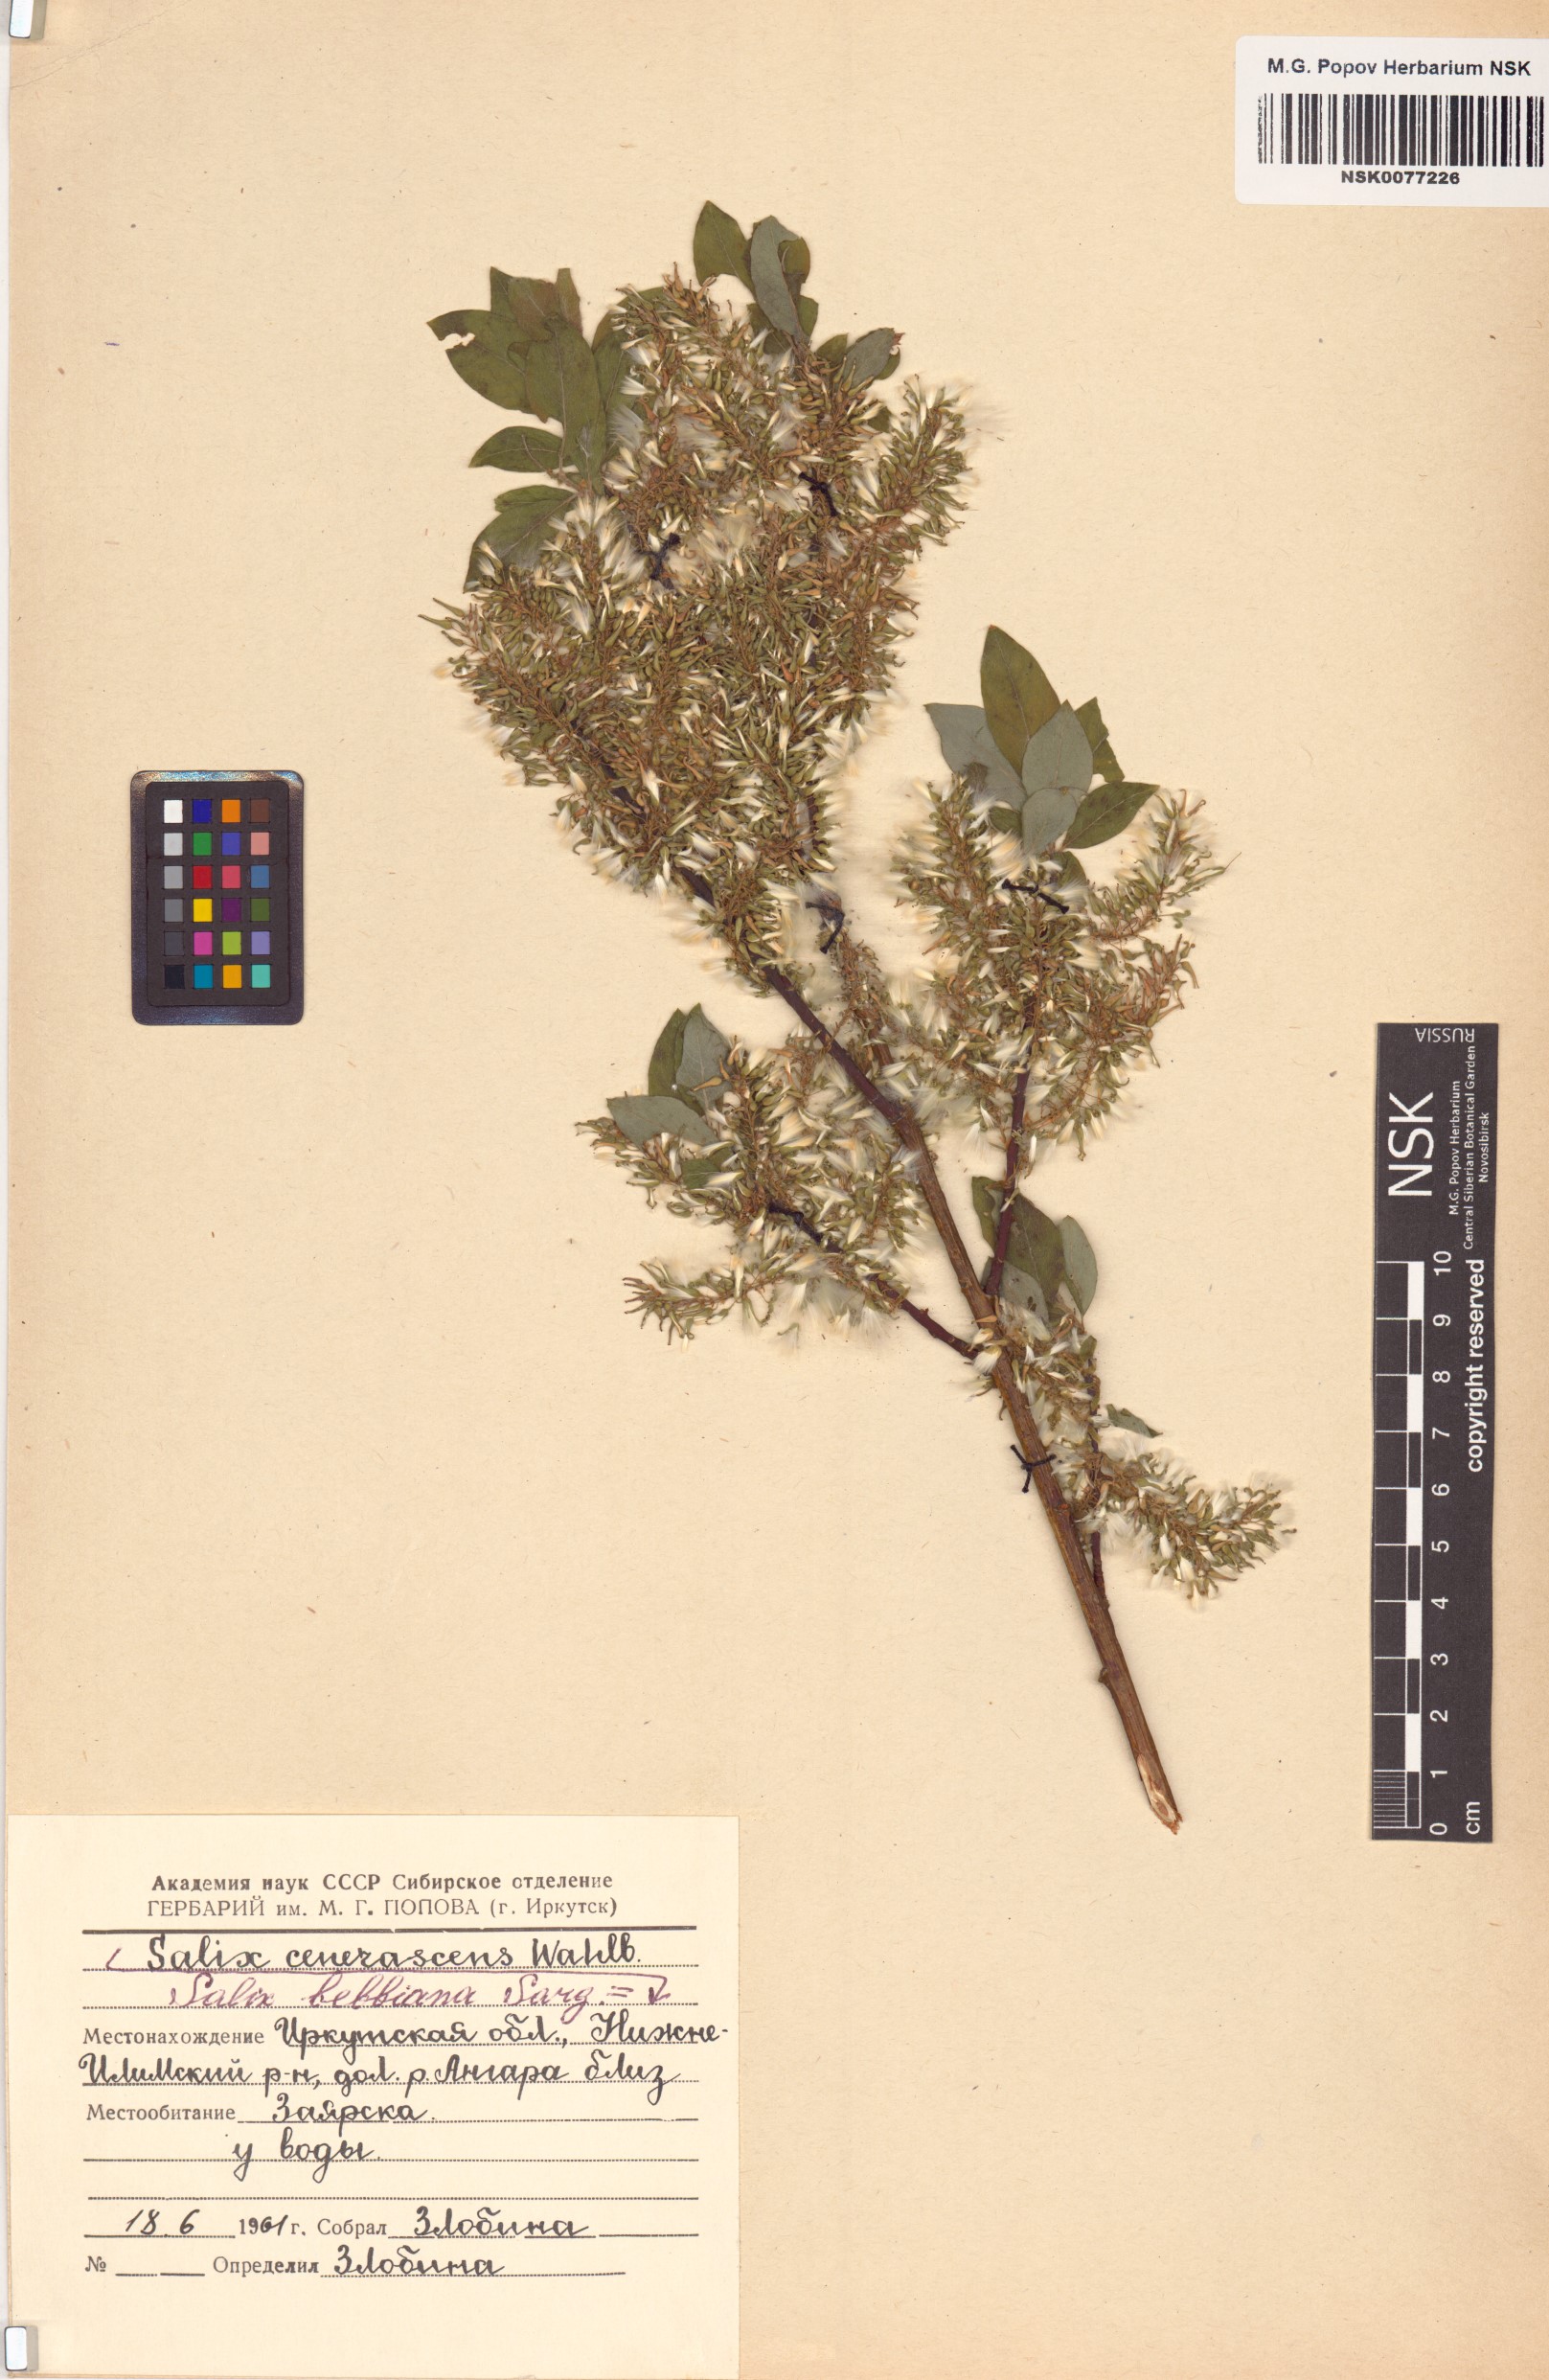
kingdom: Plantae
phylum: Tracheophyta
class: Magnoliopsida
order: Malpighiales
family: Salicaceae
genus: Salix
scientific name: Salix bebbiana
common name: Bebb's willow
